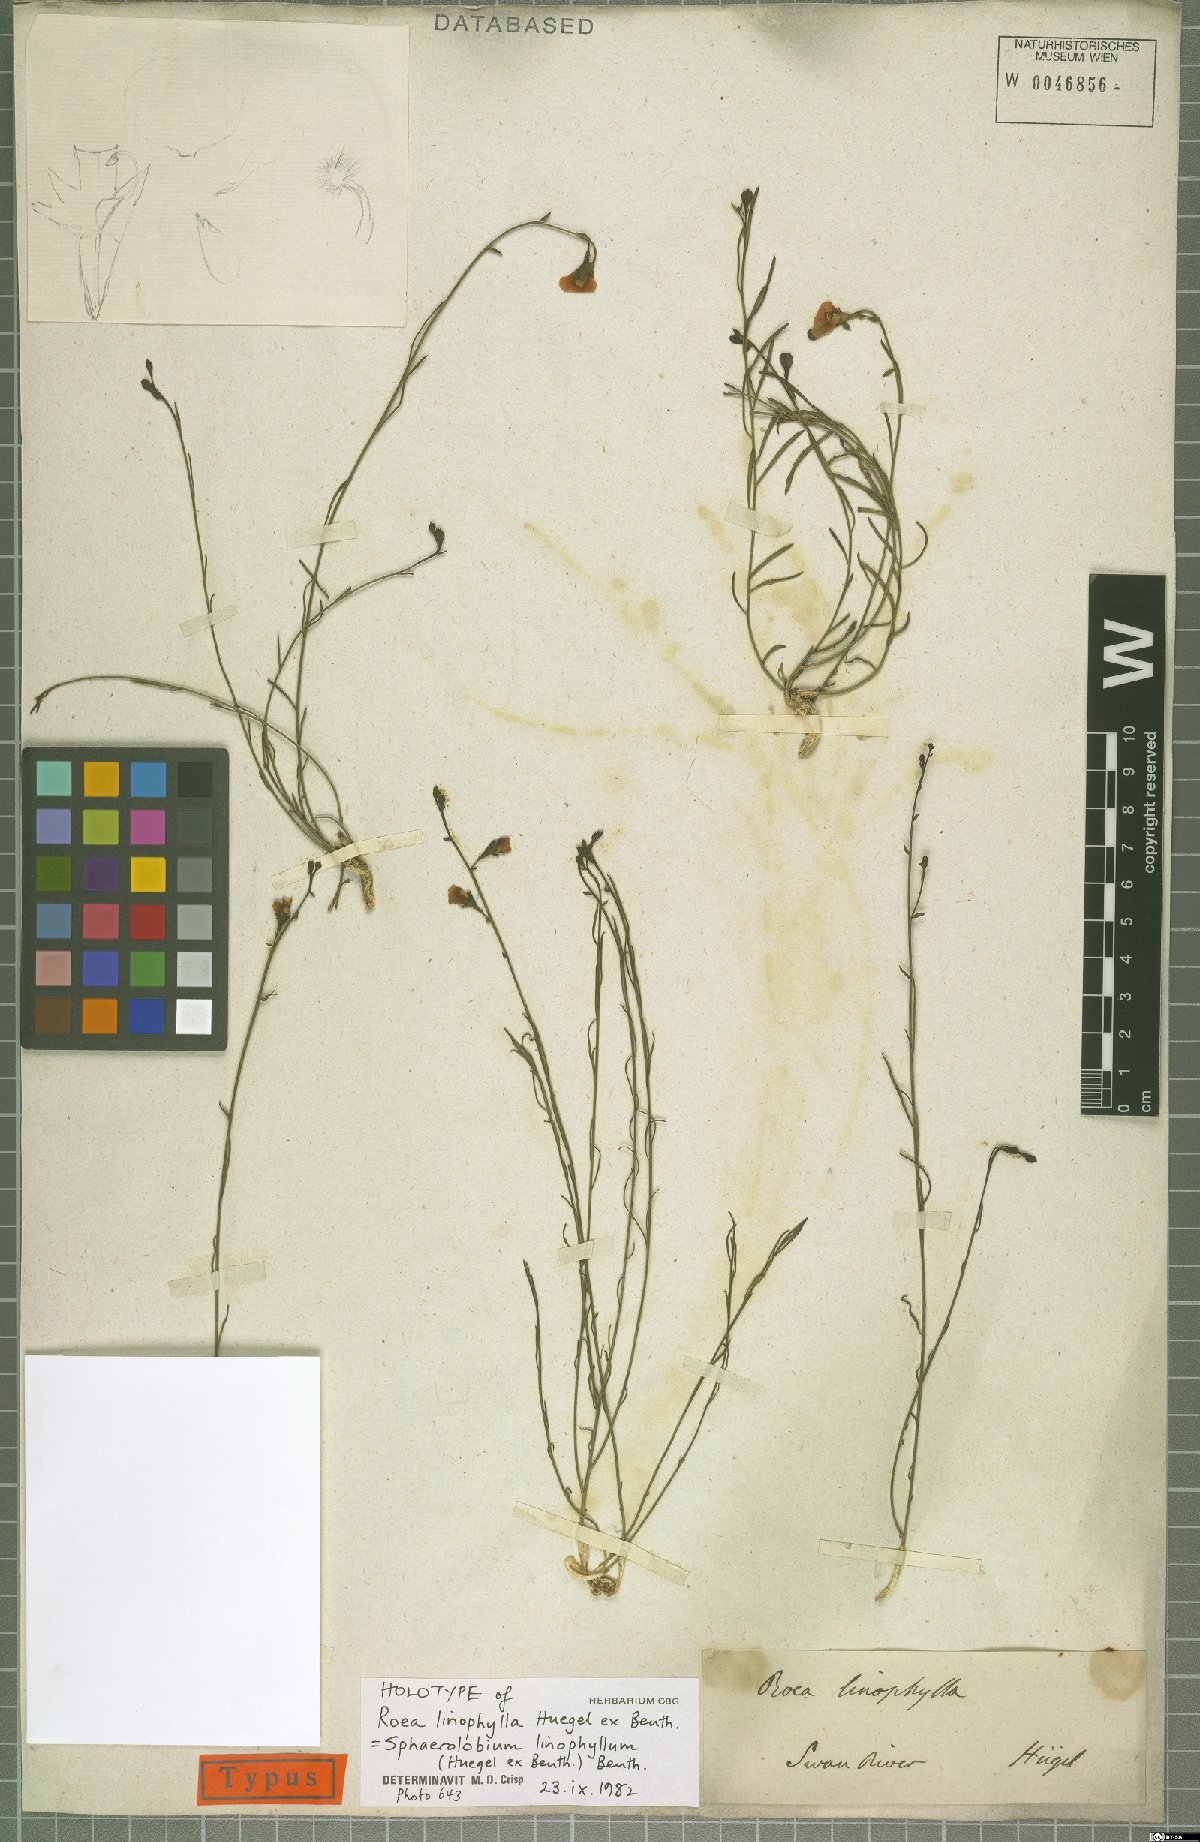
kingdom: Plantae
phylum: Tracheophyta
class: Magnoliopsida
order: Fabales
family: Fabaceae
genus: Sphaerolobium
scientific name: Sphaerolobium linophyllum
